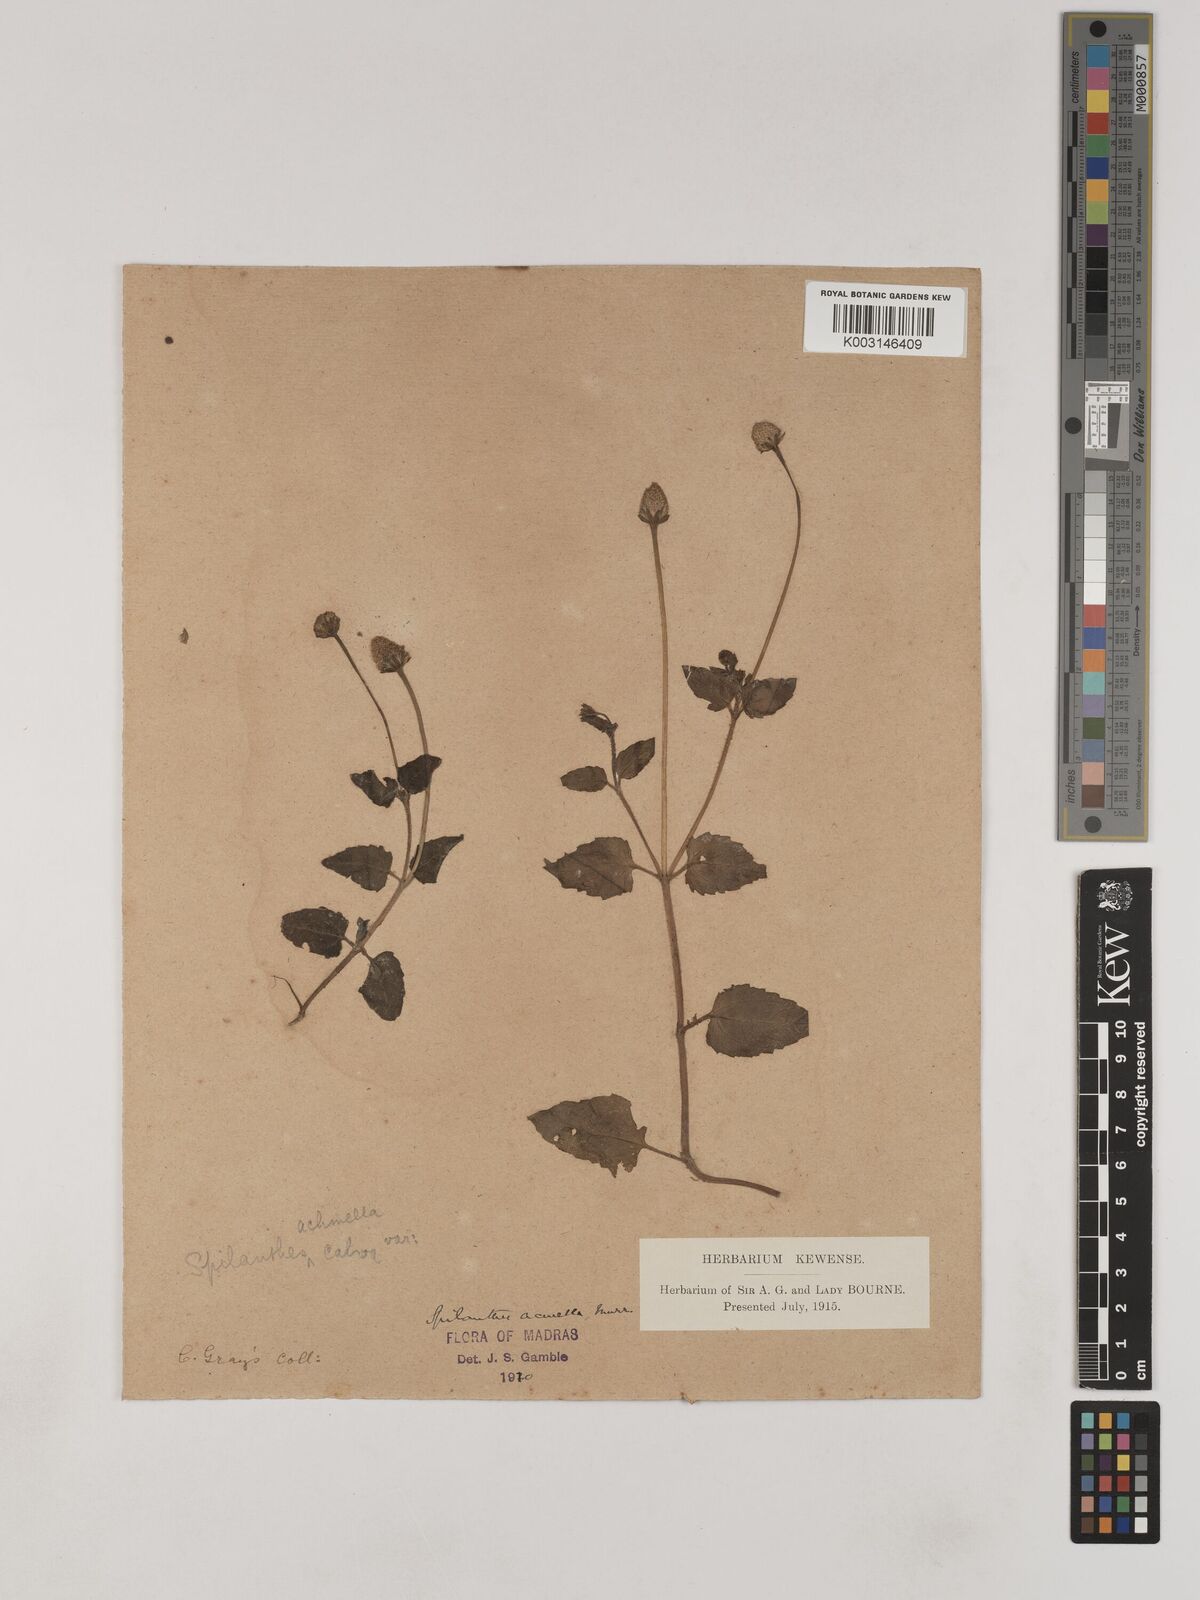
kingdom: Plantae
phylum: Tracheophyta
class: Magnoliopsida
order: Asterales
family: Asteraceae
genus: Acmella
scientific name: Acmella calva
